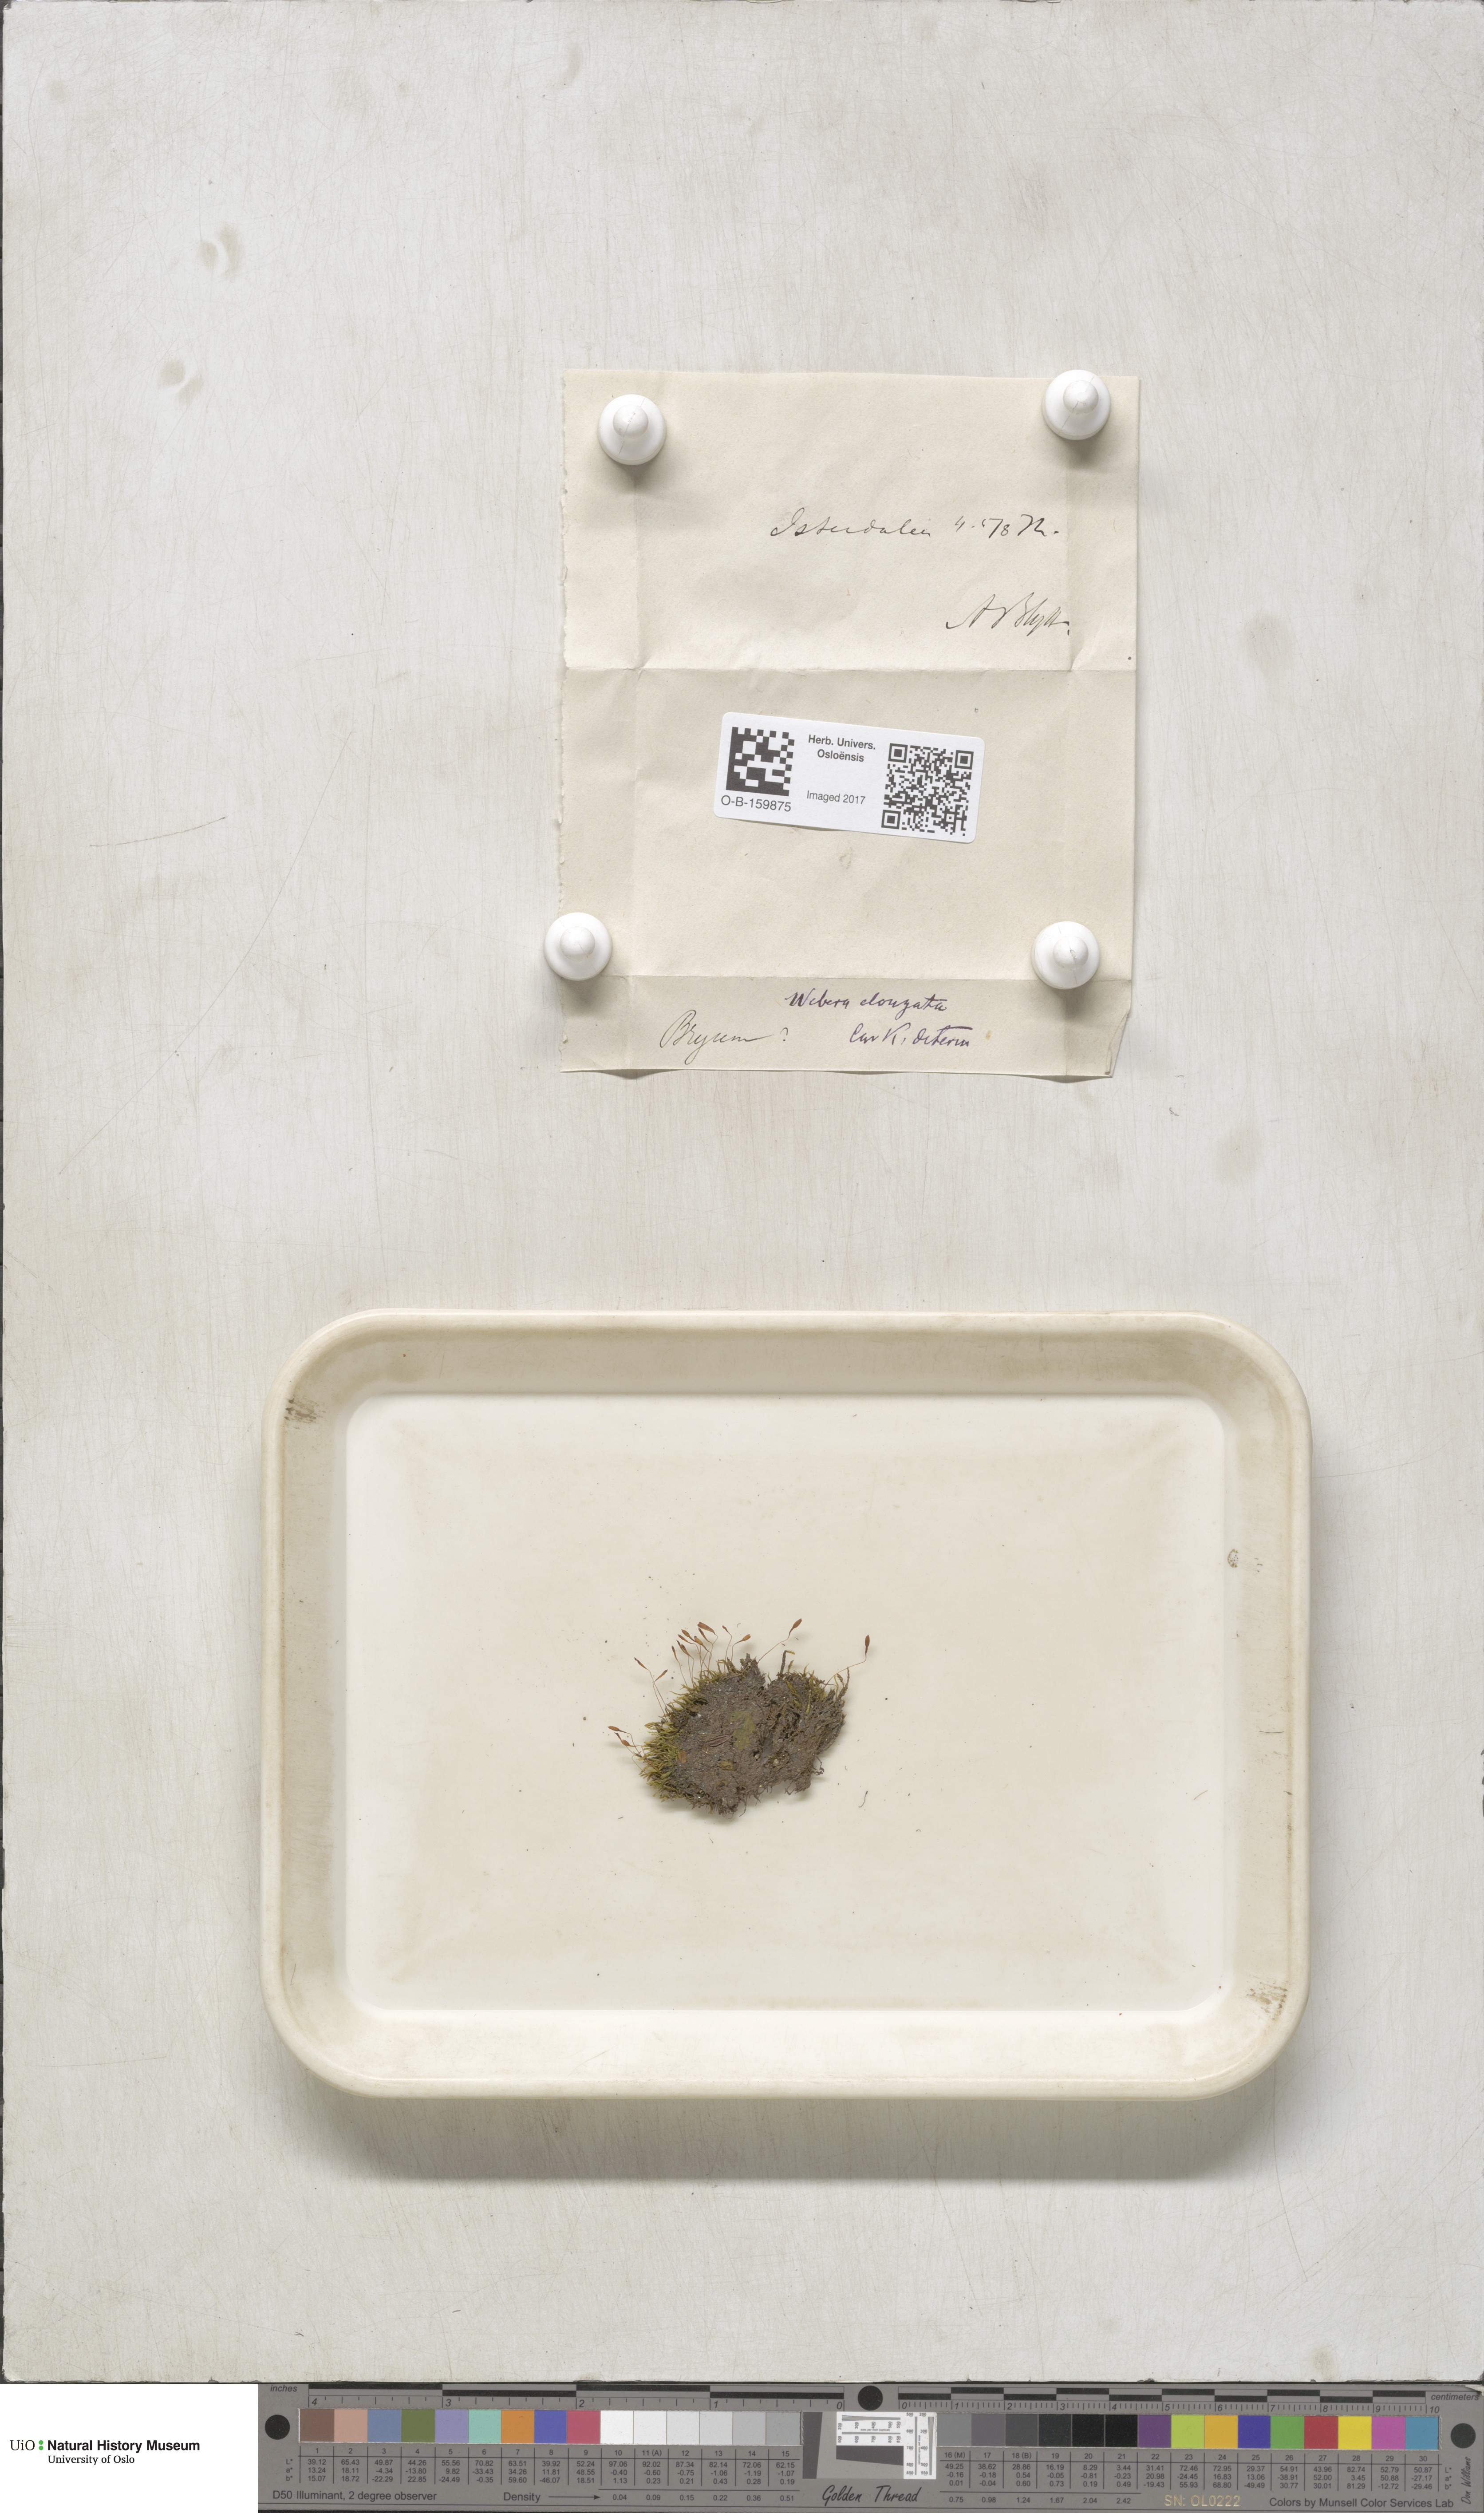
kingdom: Plantae
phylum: Bryophyta
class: Bryopsida
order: Bryales
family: Mniaceae
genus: Pohlia
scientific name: Pohlia elongata
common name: Long-fruited thread-moss
